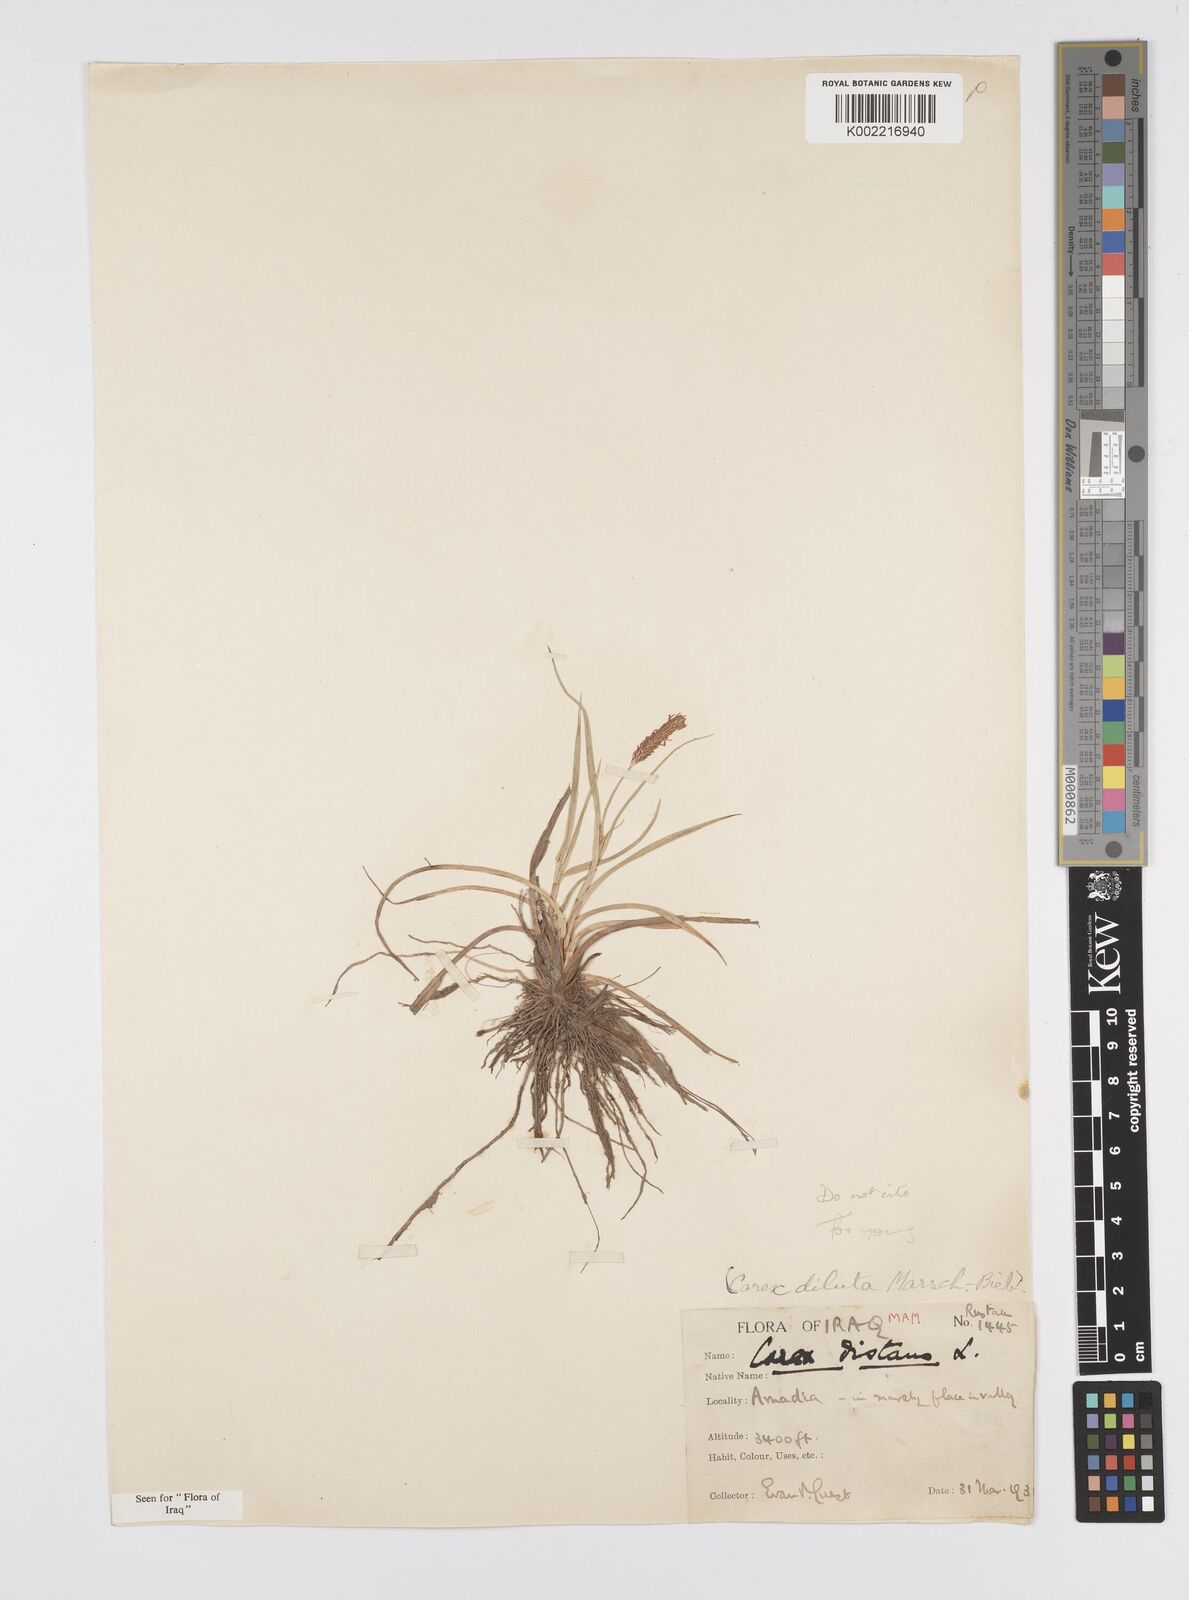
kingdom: Plantae
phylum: Tracheophyta
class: Liliopsida
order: Poales
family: Cyperaceae
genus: Carex
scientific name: Carex distans
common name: Distant sedge
